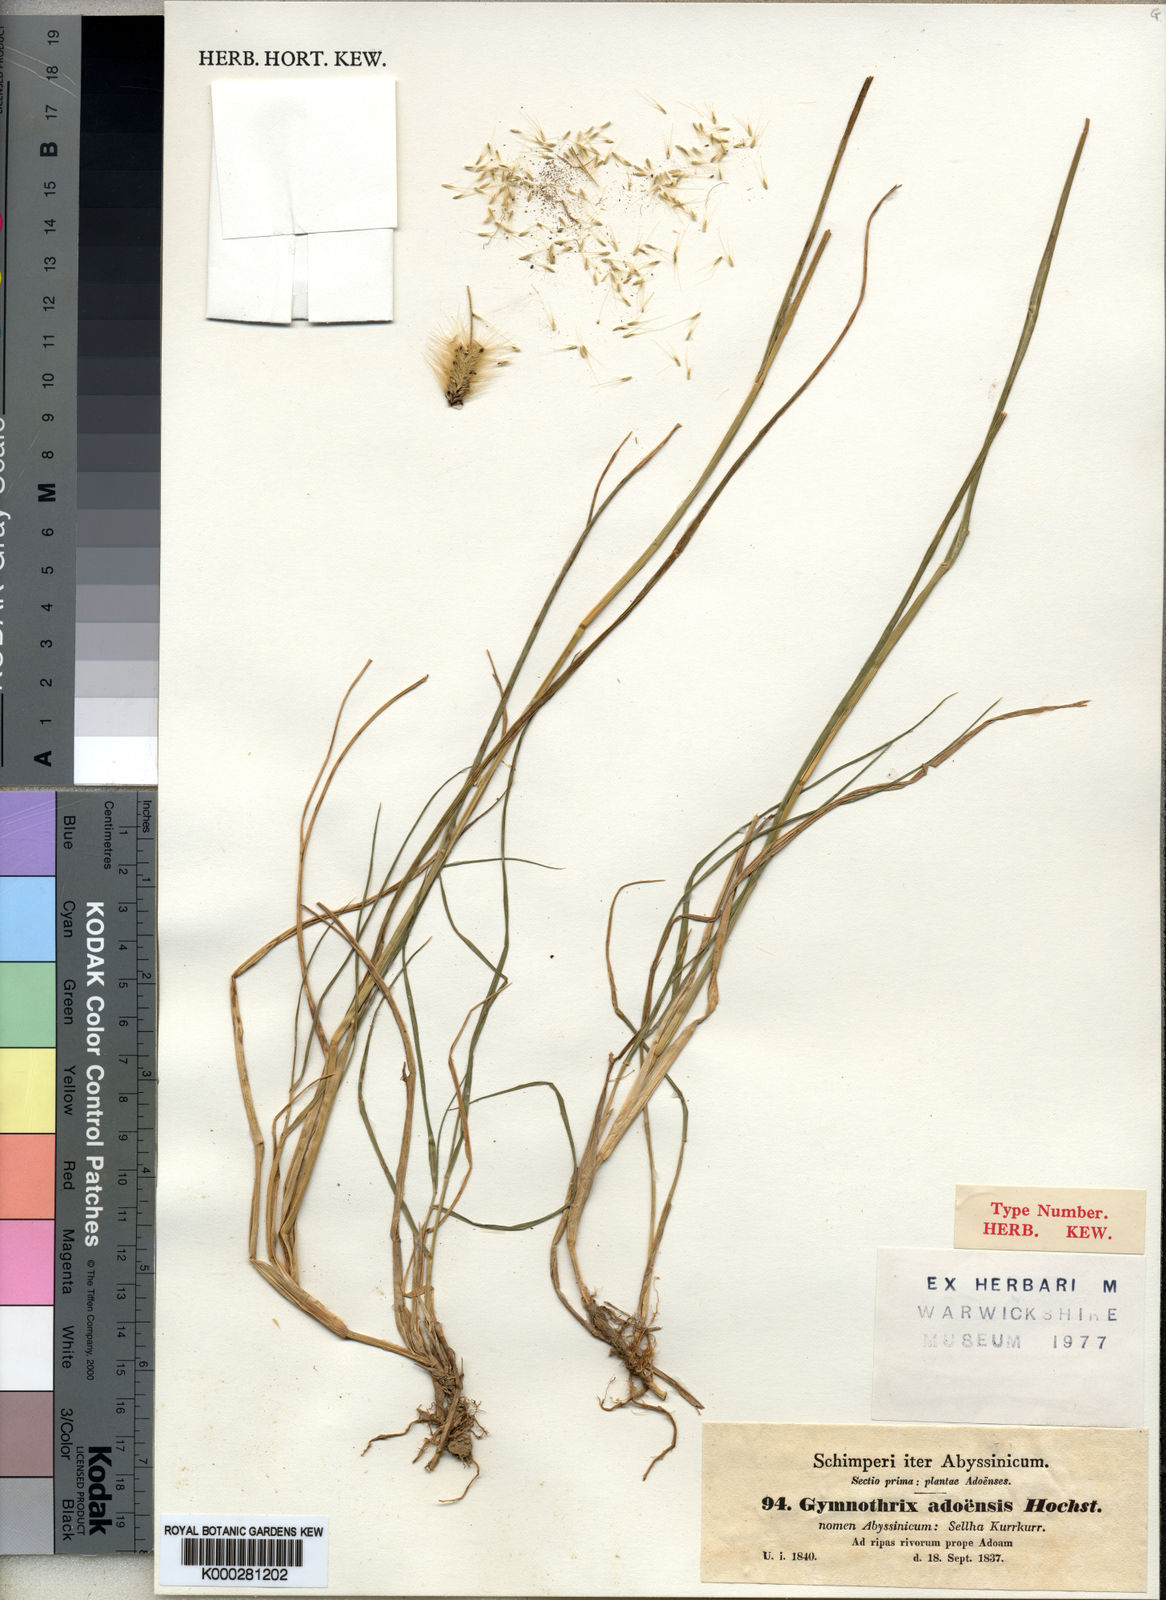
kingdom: Plantae
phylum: Tracheophyta
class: Liliopsida
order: Poales
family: Poaceae
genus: Cenchrus
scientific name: Cenchrus petiolaris
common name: Grass
